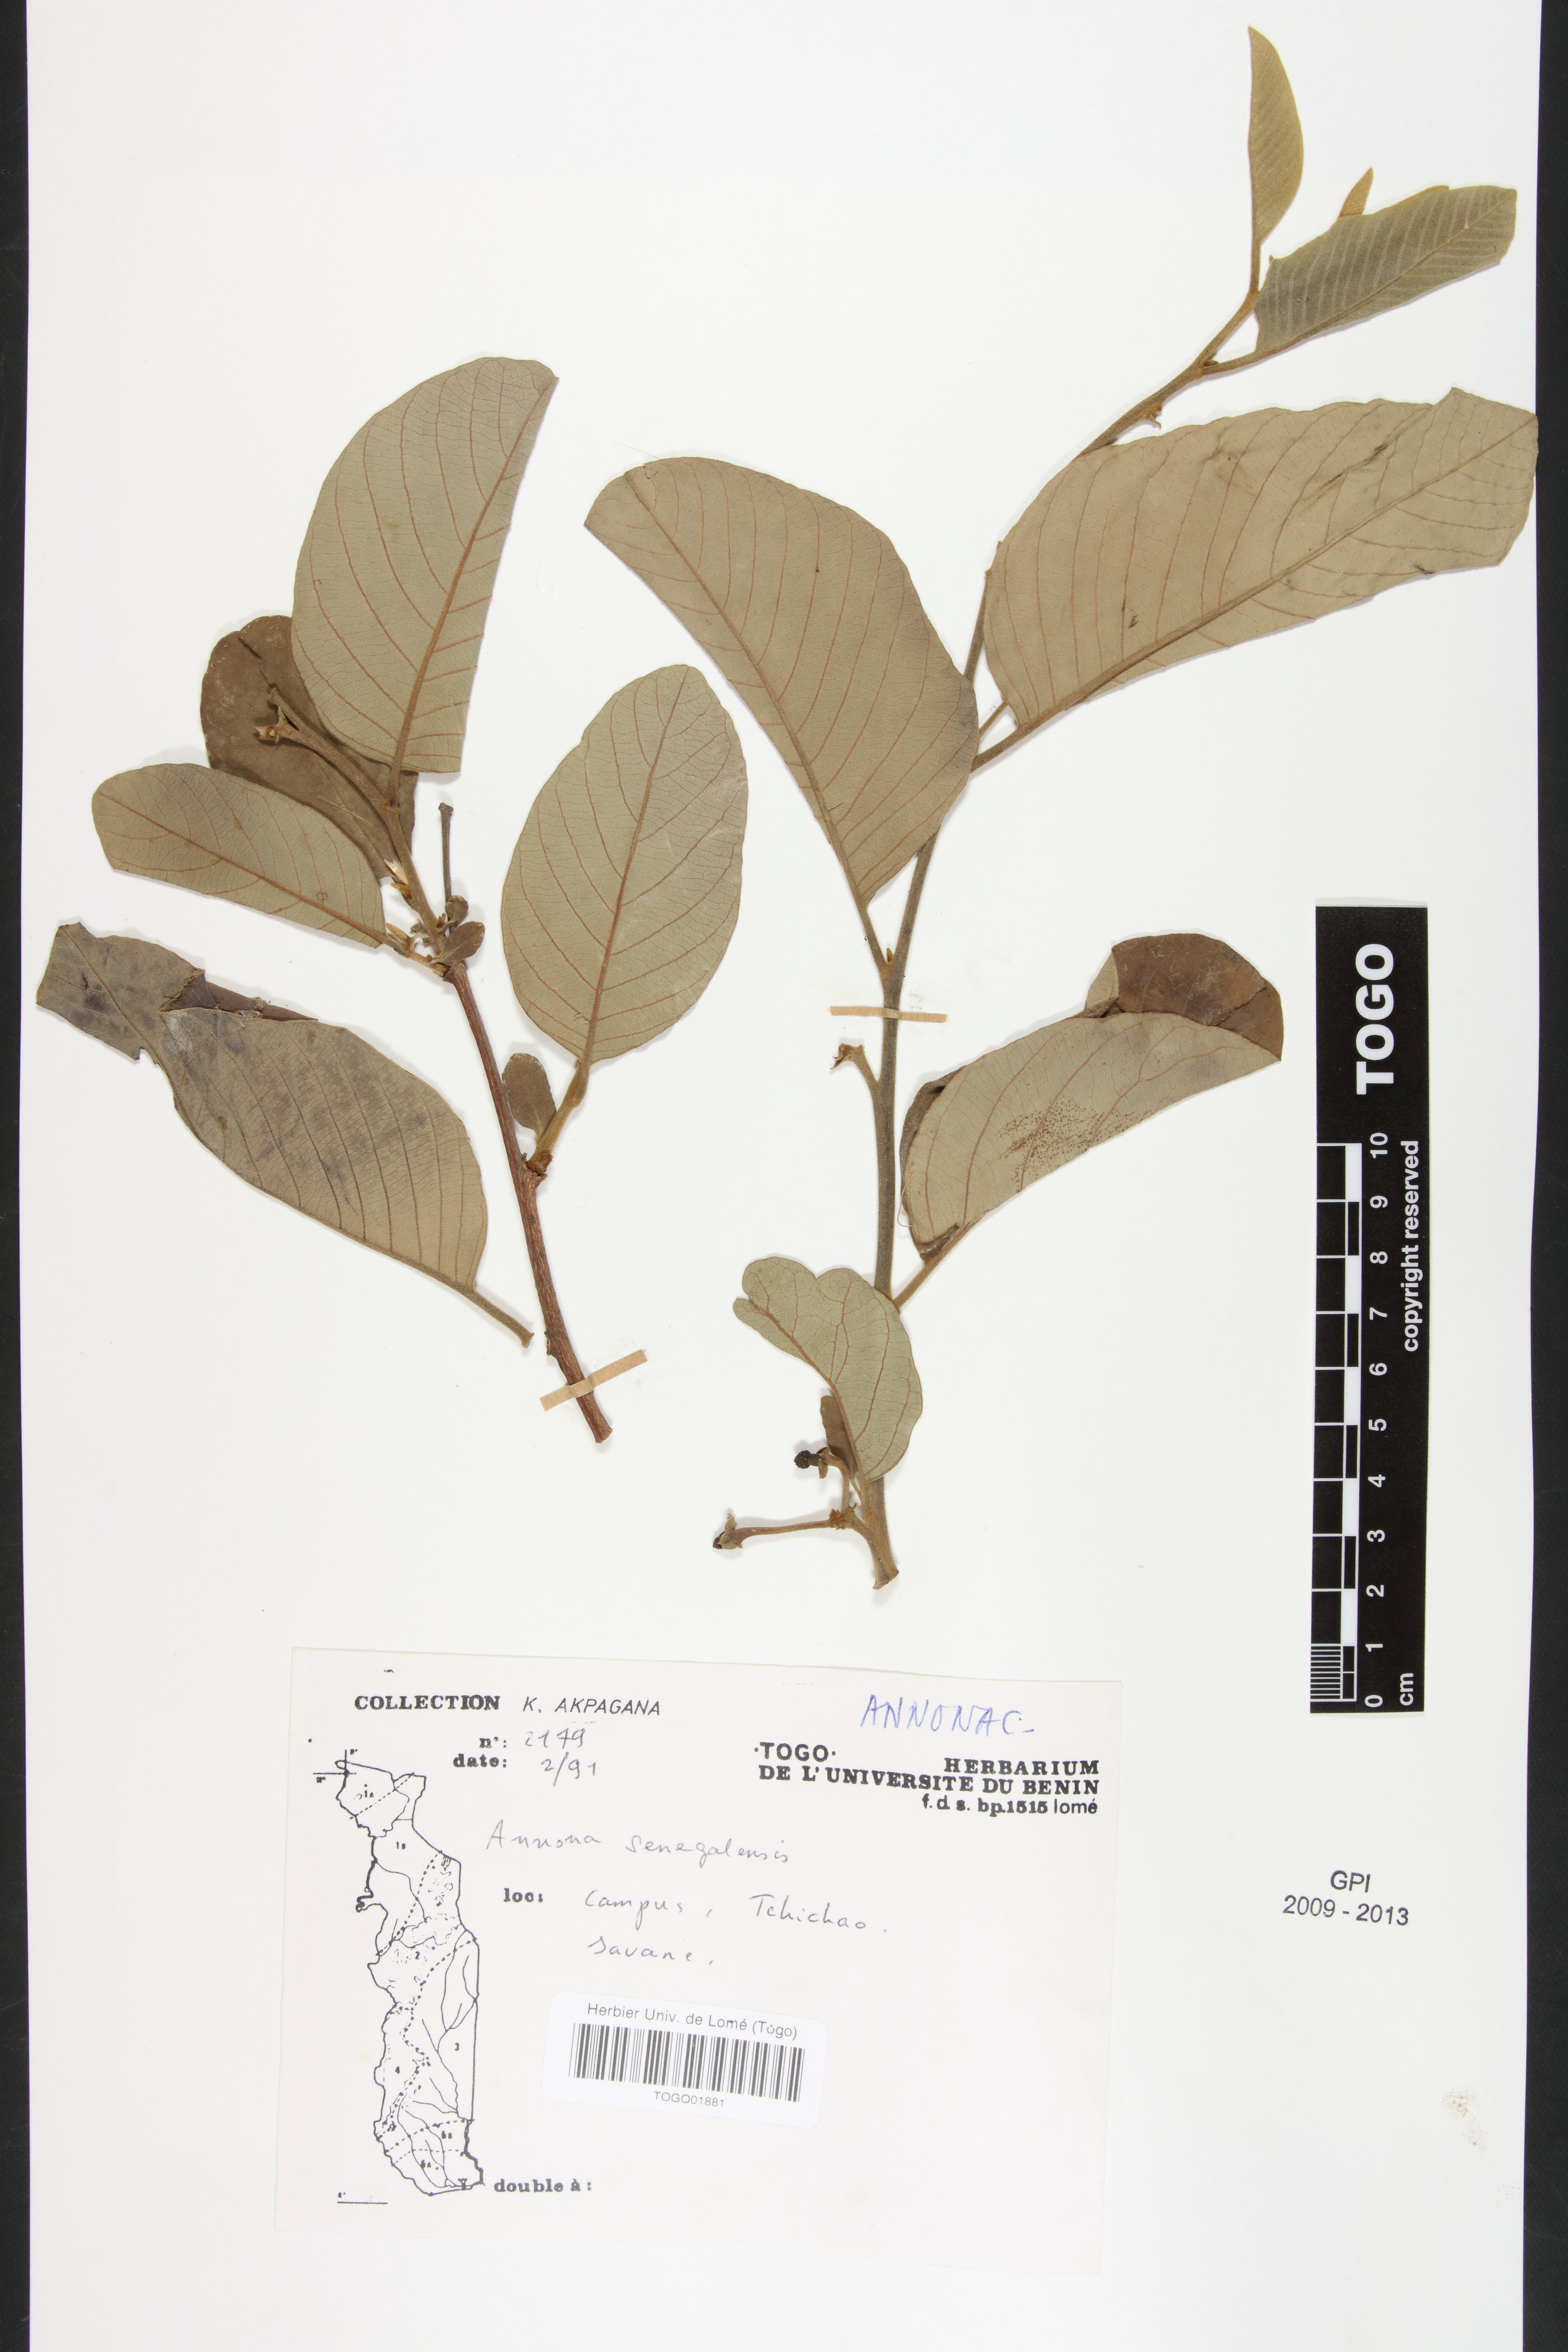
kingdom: Plantae
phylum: Tracheophyta
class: Magnoliopsida
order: Magnoliales
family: Annonaceae
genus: Annona
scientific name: Annona senegalensis
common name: Wild custard-apple
